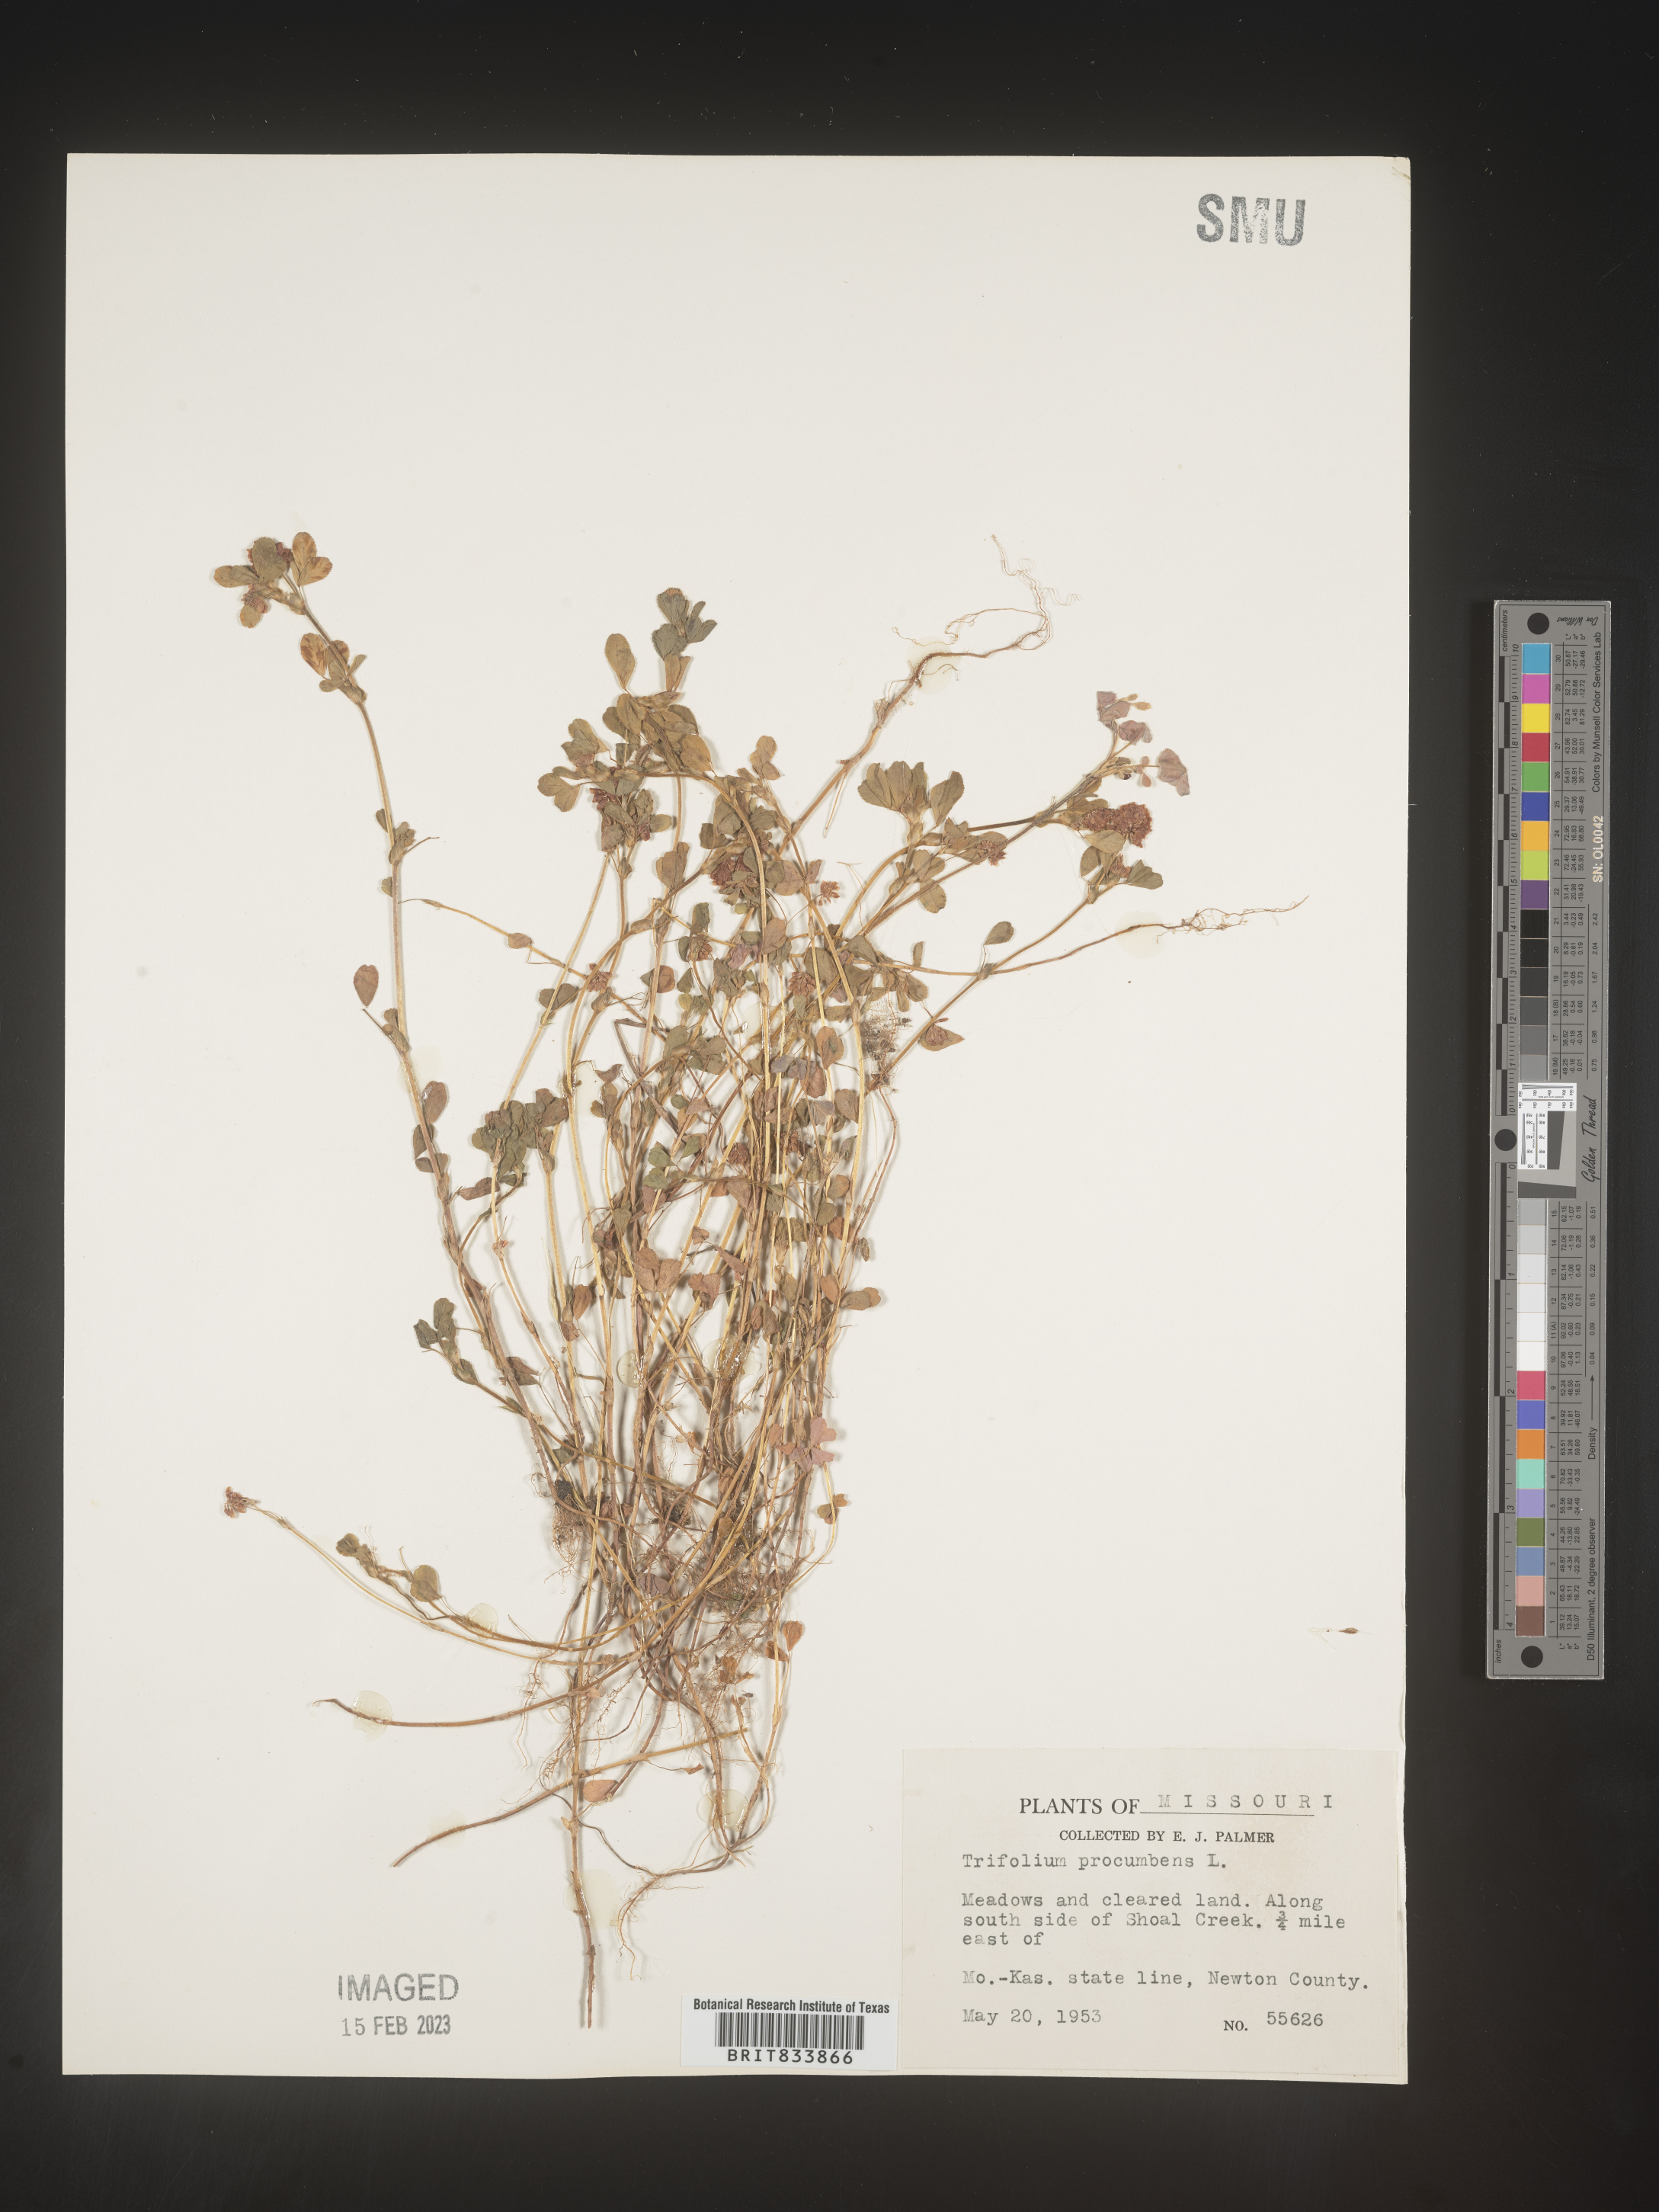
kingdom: Plantae
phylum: Tracheophyta
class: Magnoliopsida
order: Fabales
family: Fabaceae
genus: Trifolium
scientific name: Trifolium campestre
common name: Field clover
